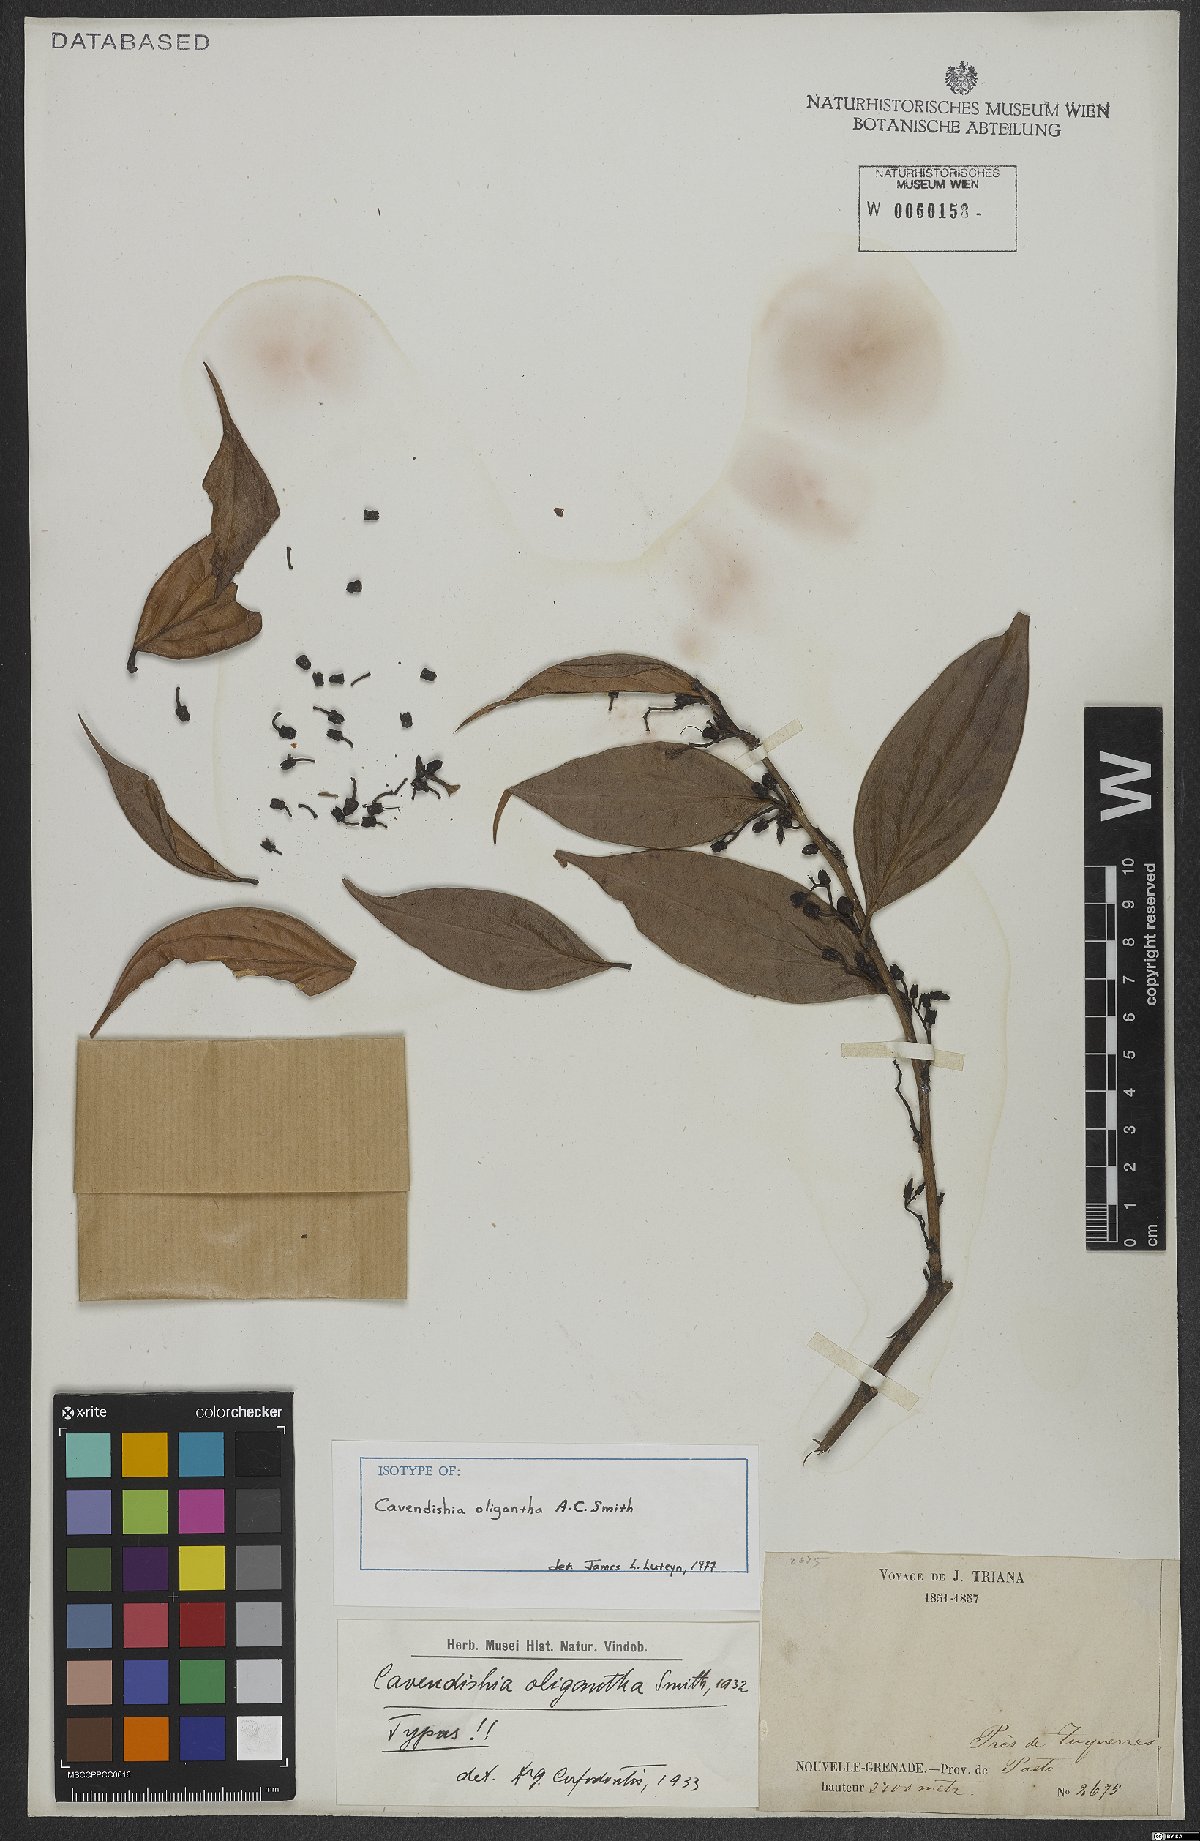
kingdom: Plantae
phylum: Tracheophyta
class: Magnoliopsida
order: Ericales
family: Ericaceae
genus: Cavendishia
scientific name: Cavendishia oligantha
